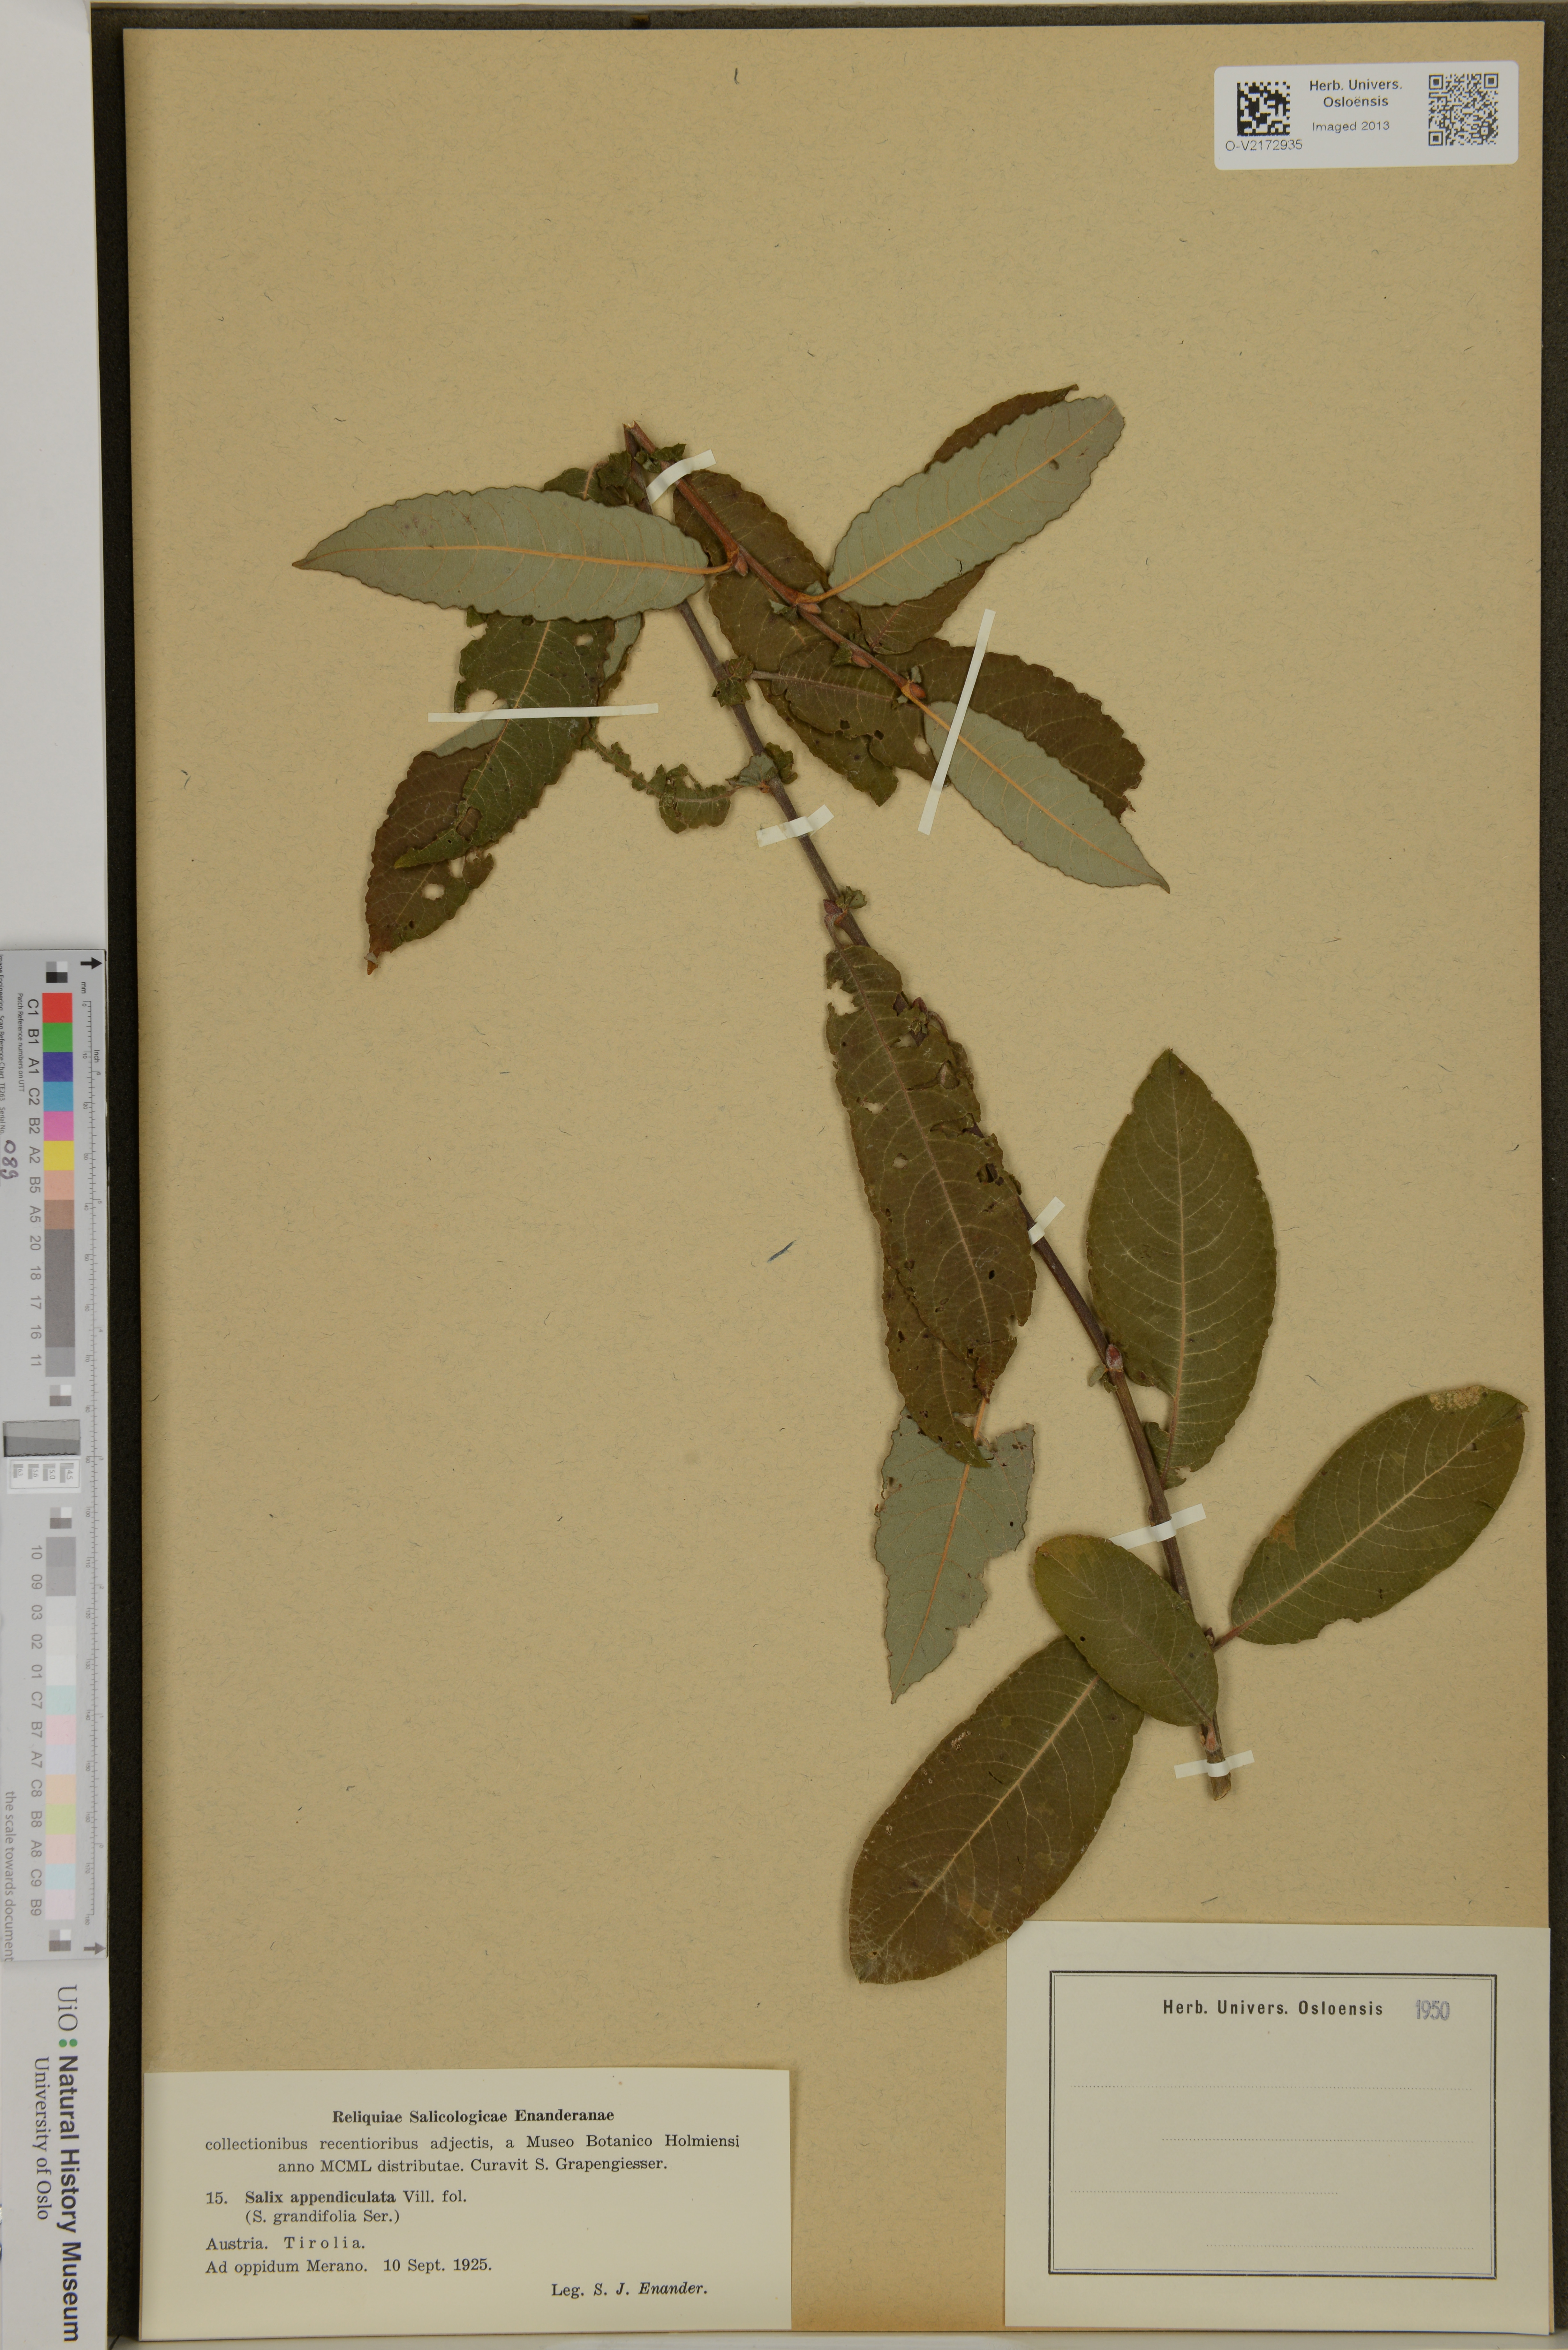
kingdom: Plantae
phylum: Tracheophyta
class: Magnoliopsida
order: Malpighiales
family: Salicaceae
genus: Salix
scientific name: Salix glauca
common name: Glaucous willow
